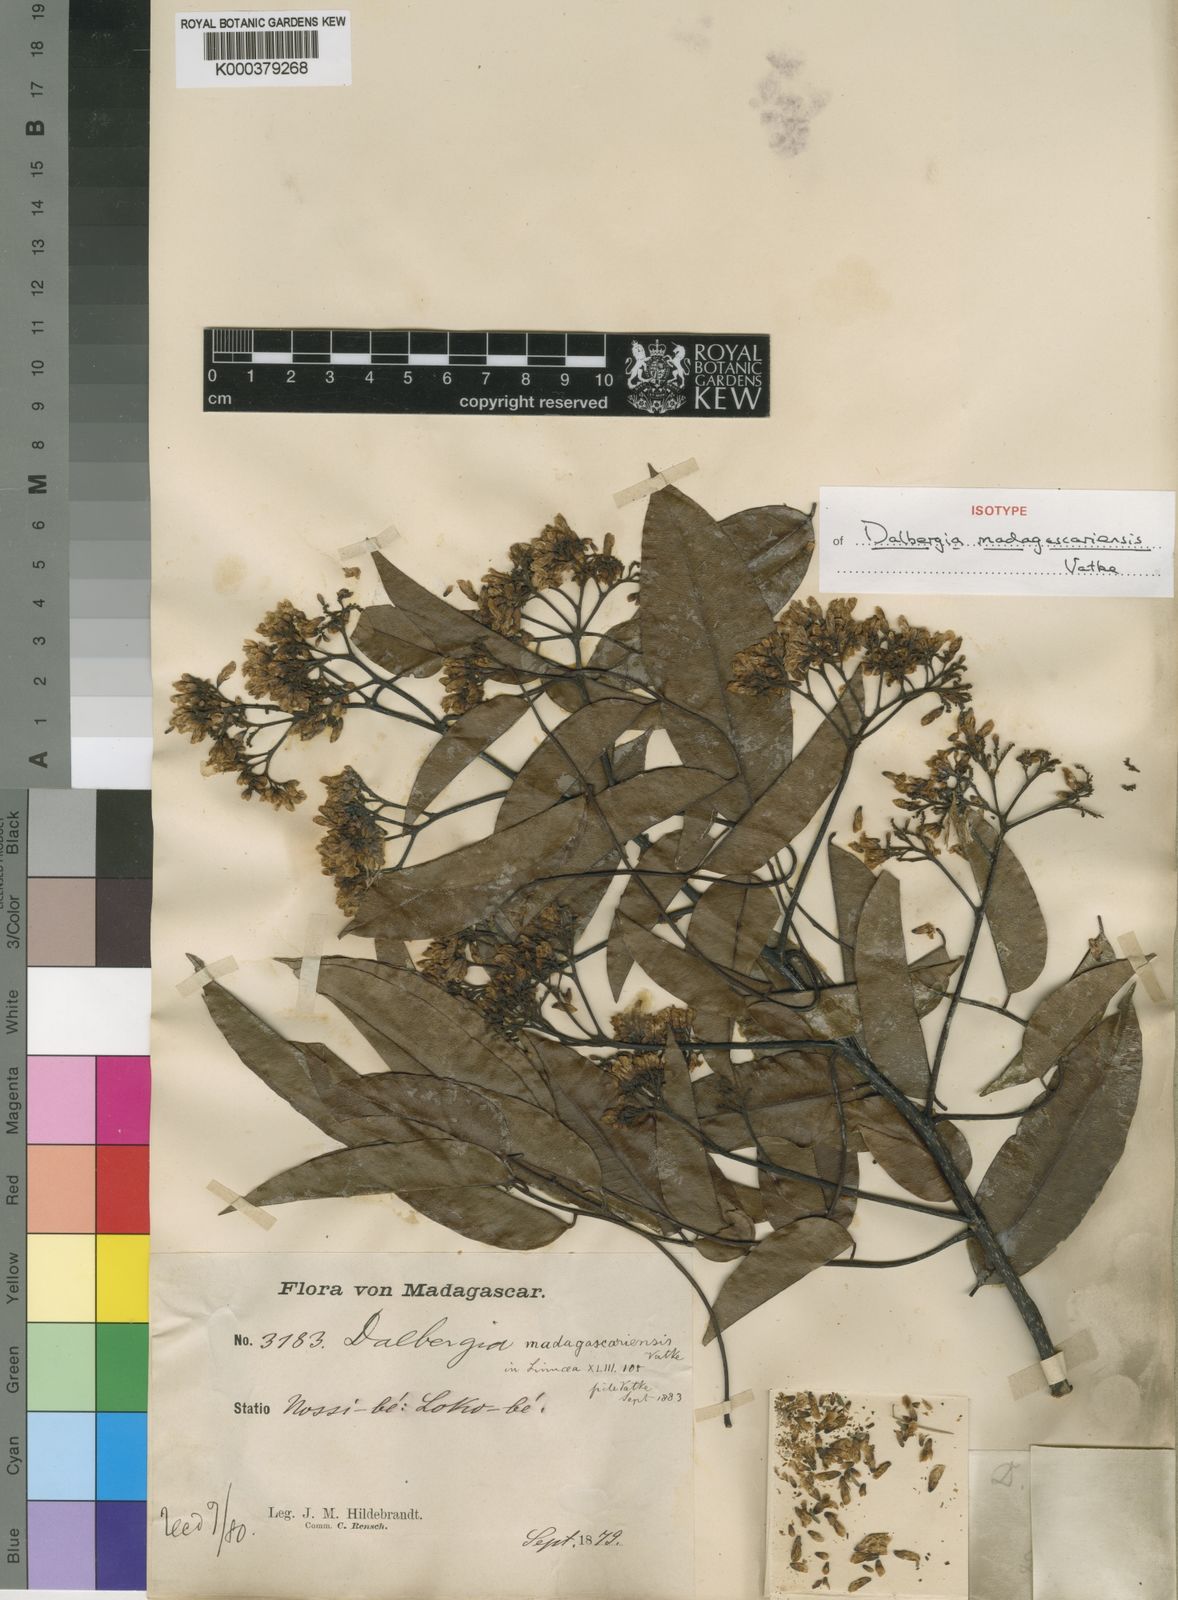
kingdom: Plantae
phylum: Tracheophyta
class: Magnoliopsida
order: Fabales
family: Fabaceae
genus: Dalbergia
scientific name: Dalbergia madagascariensis
